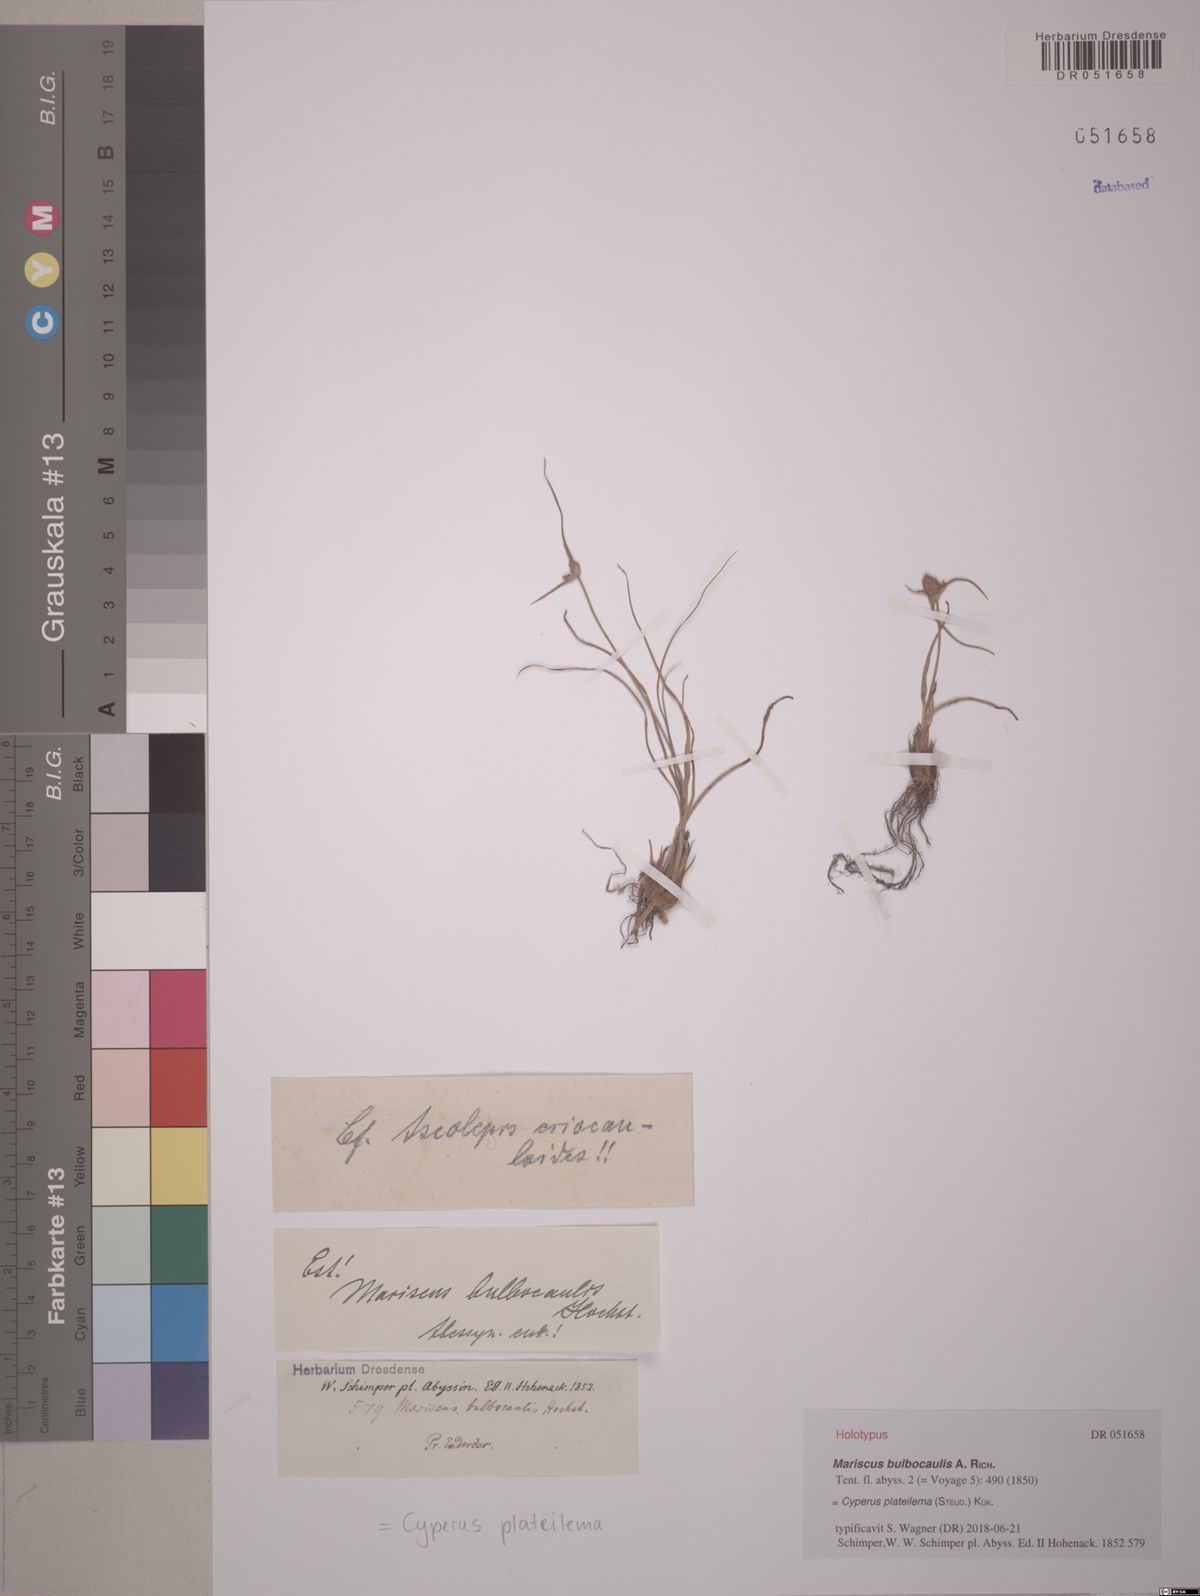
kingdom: Plantae
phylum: Tracheophyta
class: Liliopsida
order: Poales
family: Cyperaceae
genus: Cyperus
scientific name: Cyperus plateilema
